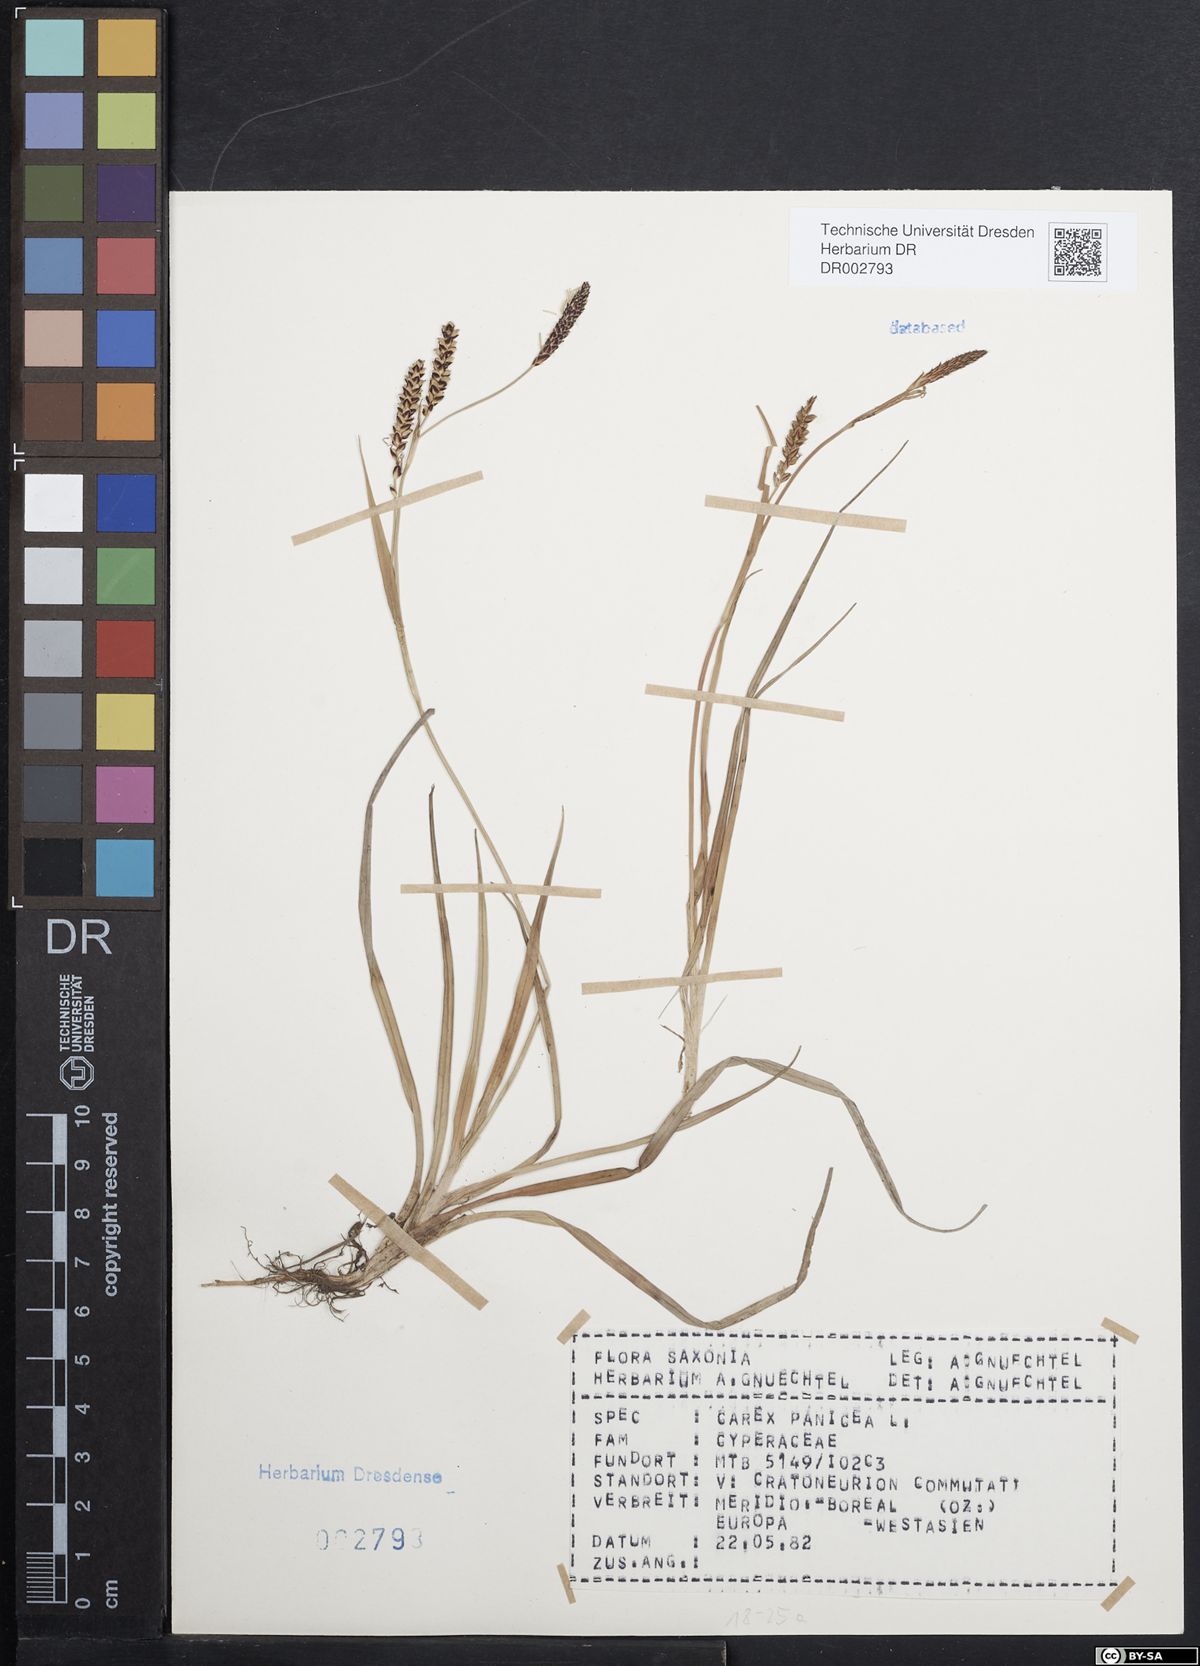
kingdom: Plantae
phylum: Tracheophyta
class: Liliopsida
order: Poales
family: Cyperaceae
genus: Carex
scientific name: Carex panicea
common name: Carnation sedge
